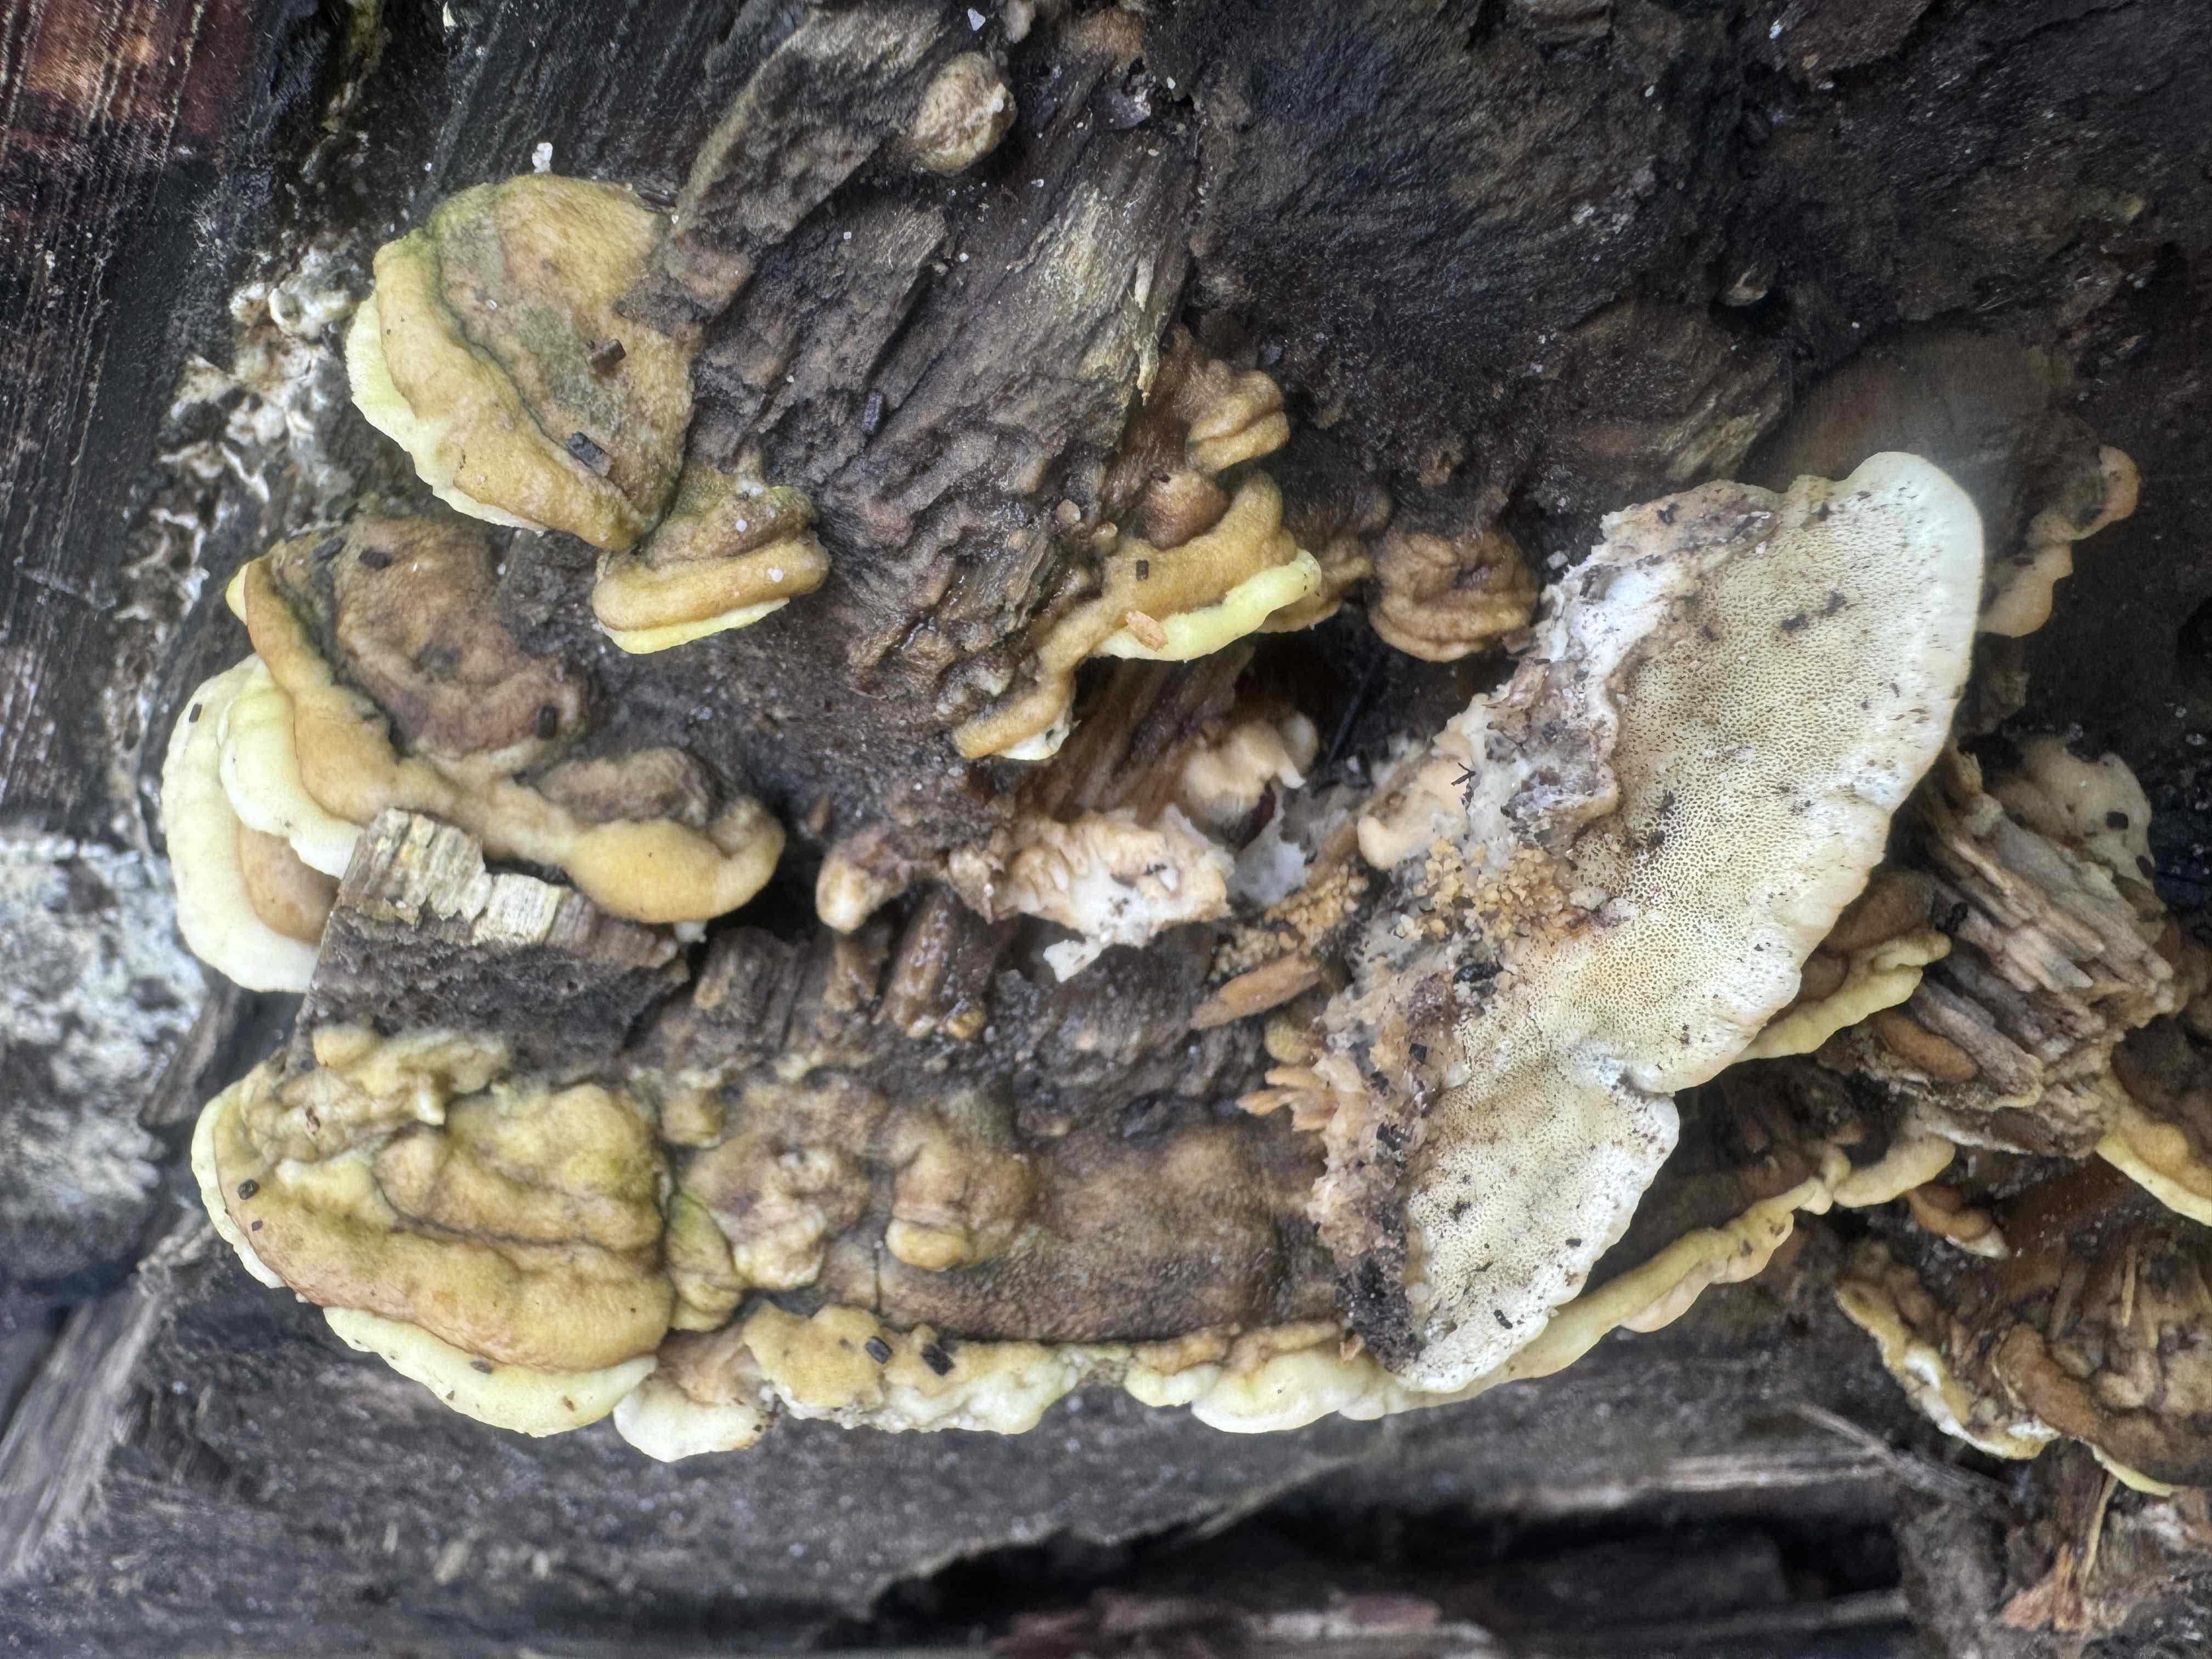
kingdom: Fungi
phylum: Basidiomycota
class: Agaricomycetes
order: Hymenochaetales
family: Oxyporaceae
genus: Oxyporus
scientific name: Oxyporus populinus
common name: sammenvokset trylleporesvamp
